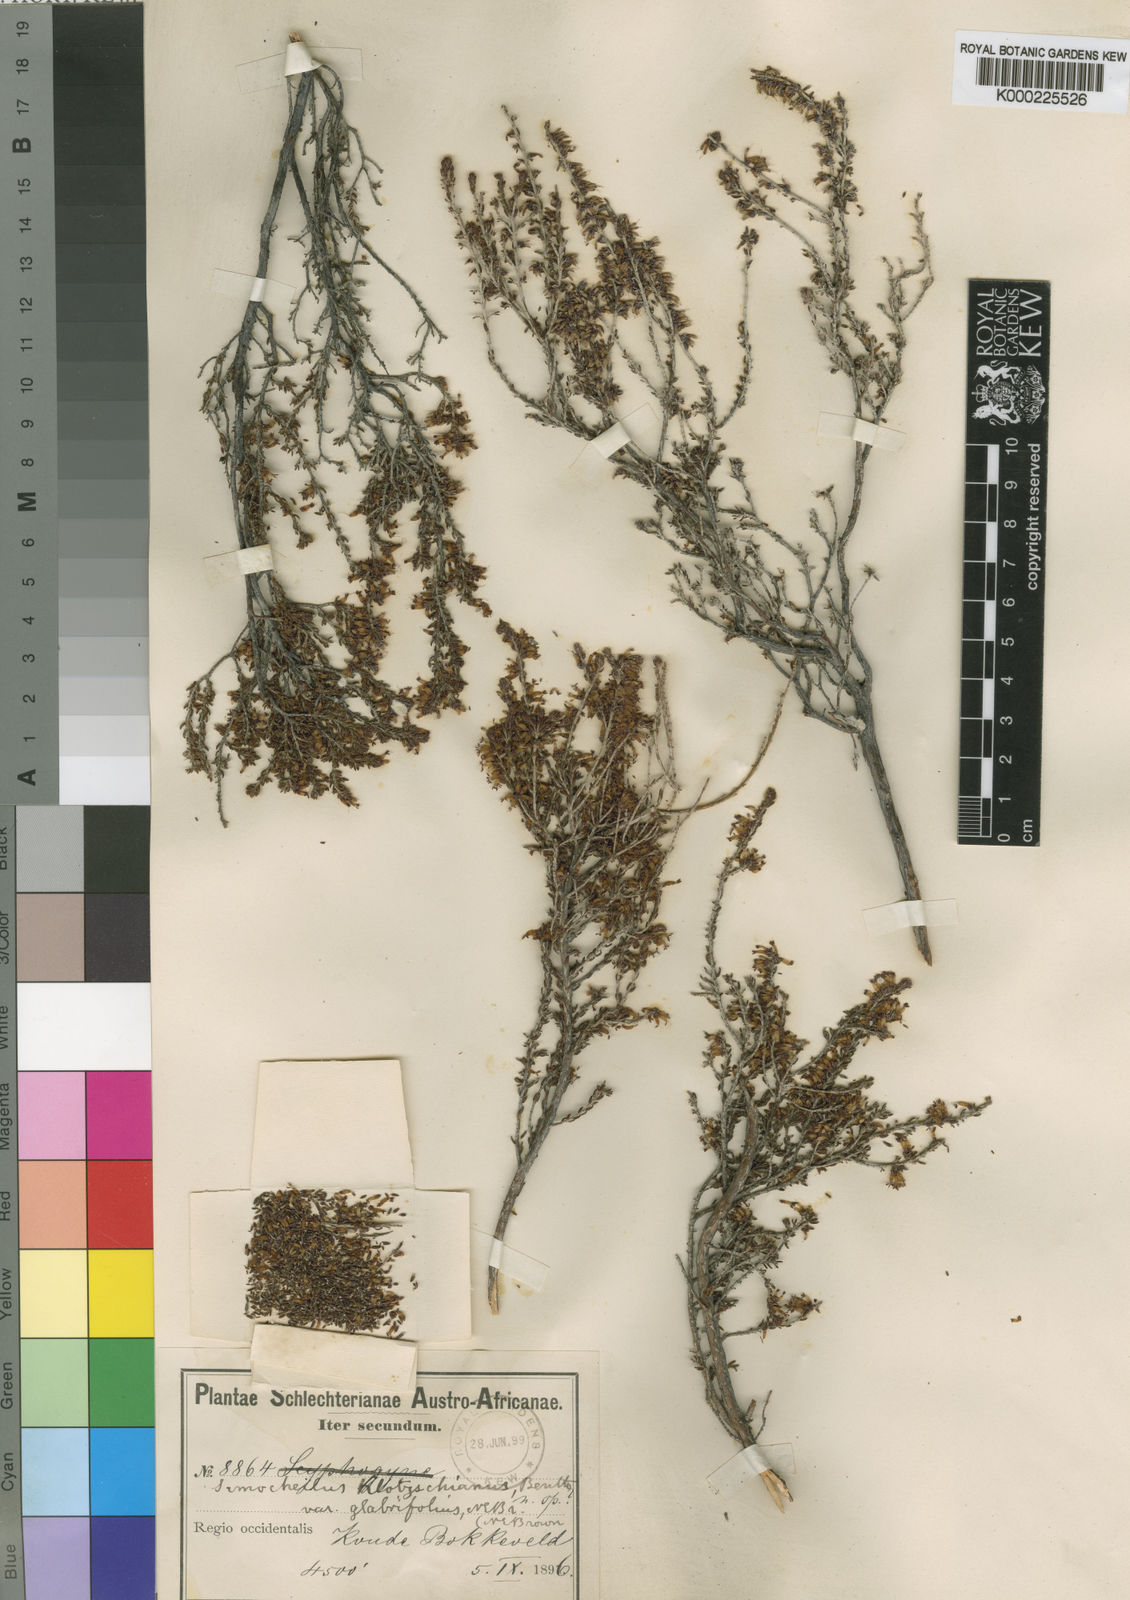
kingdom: Plantae
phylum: Tracheophyta
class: Magnoliopsida
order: Ericales
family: Ericaceae
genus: Erica
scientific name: Erica glabra
